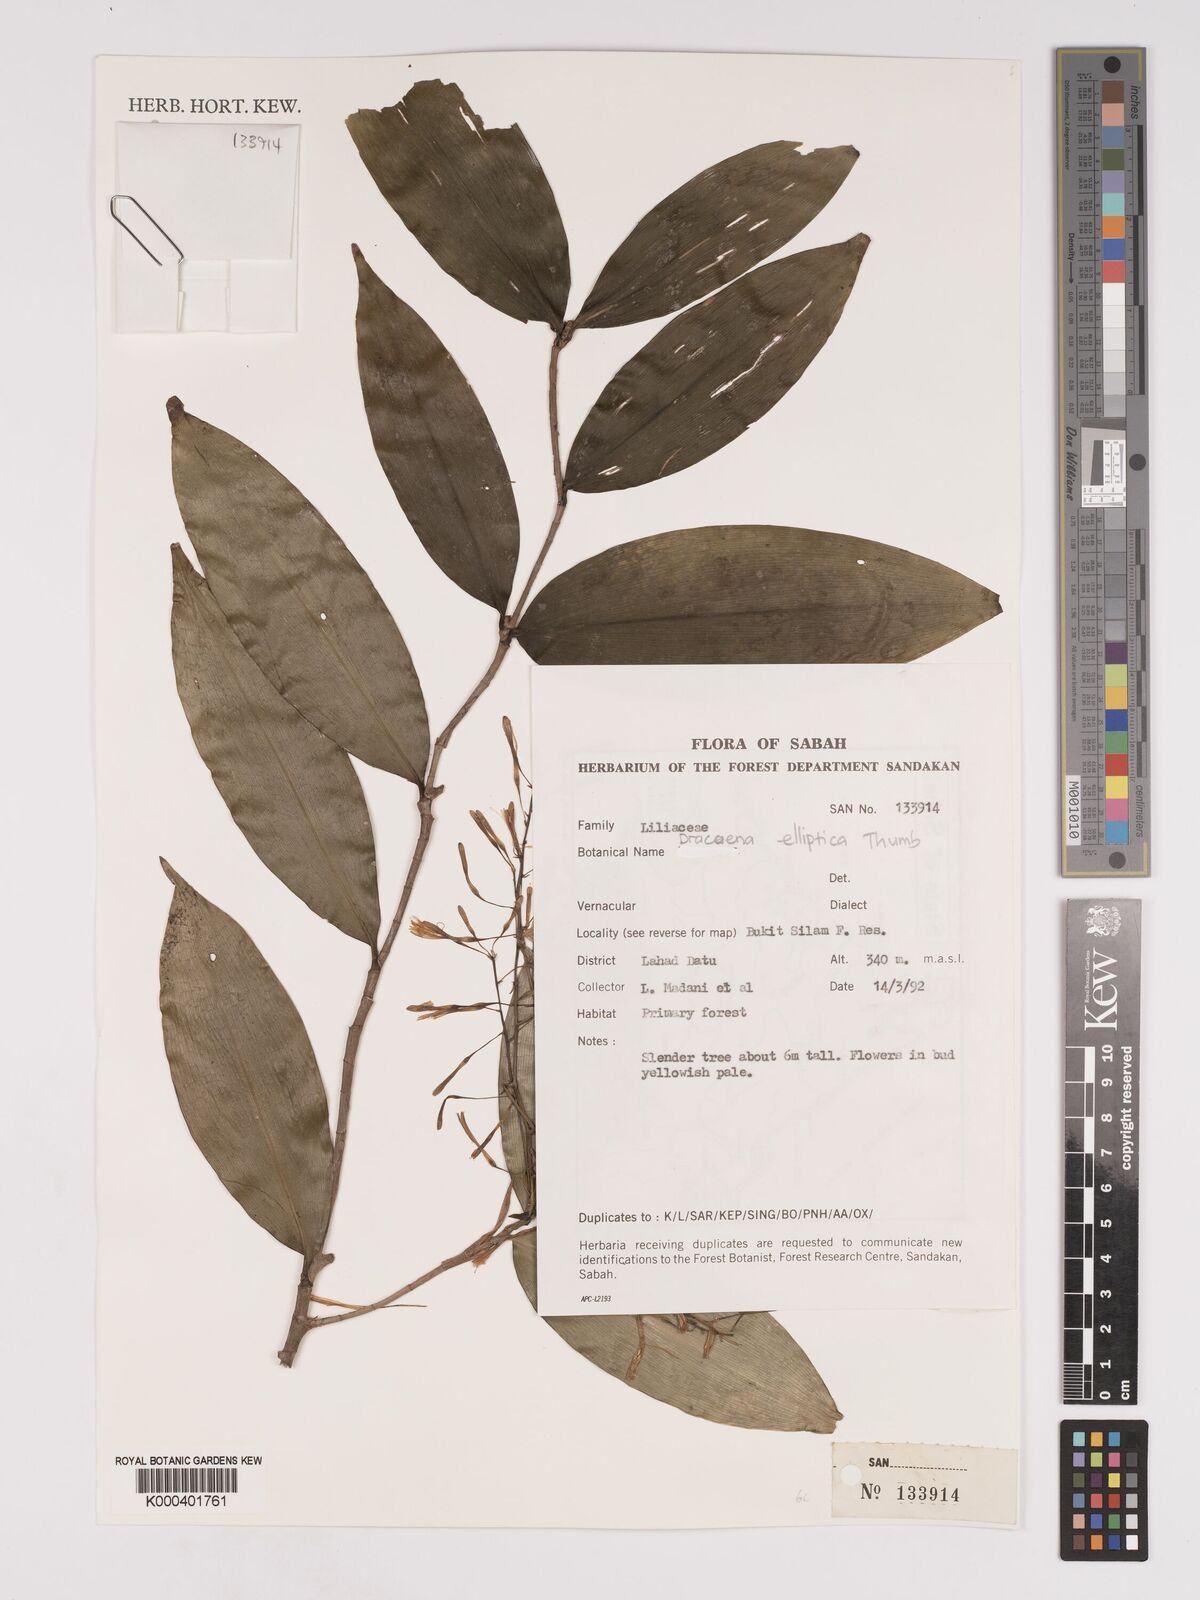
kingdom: Plantae
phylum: Tracheophyta
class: Liliopsida
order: Asparagales
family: Asparagaceae
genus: Dracaena
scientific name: Dracaena elliptica
